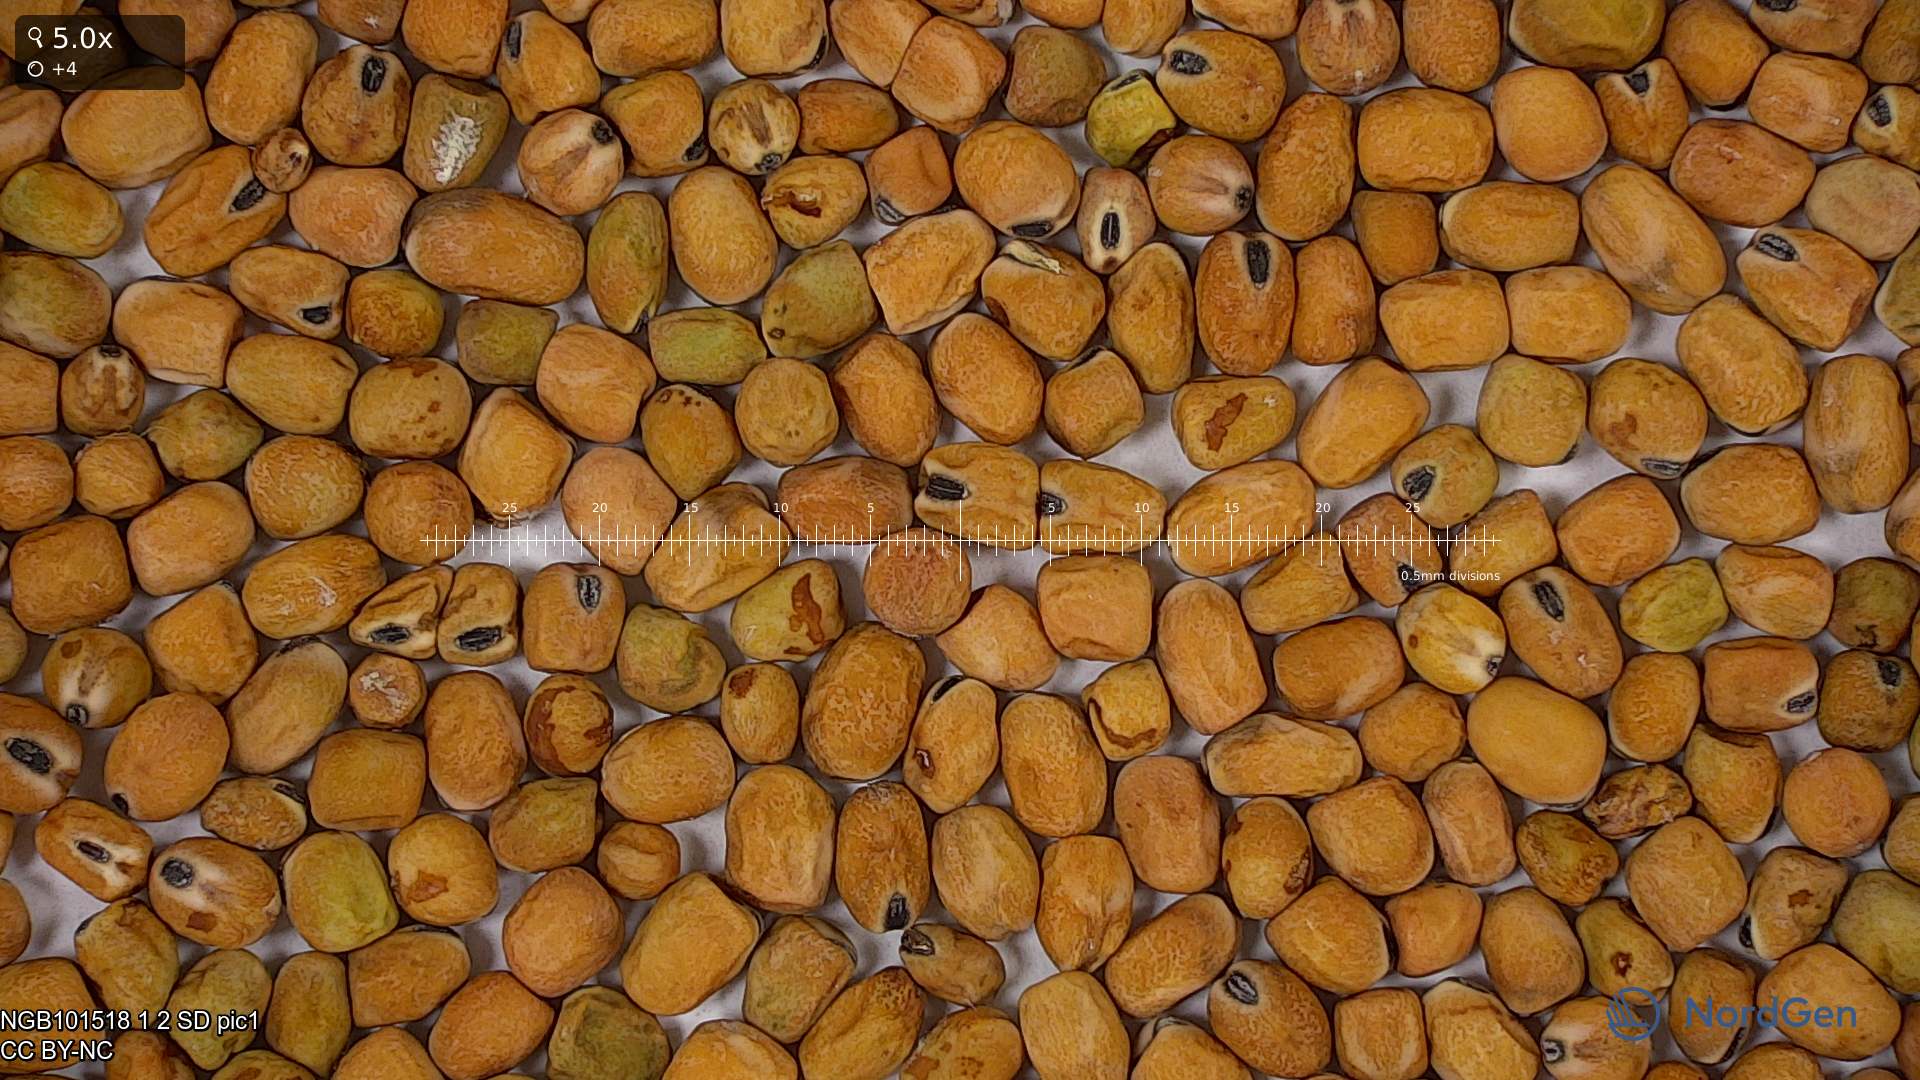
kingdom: Plantae
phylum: Tracheophyta
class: Magnoliopsida
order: Fabales
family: Fabaceae
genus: Lathyrus
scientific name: Lathyrus oleraceus
